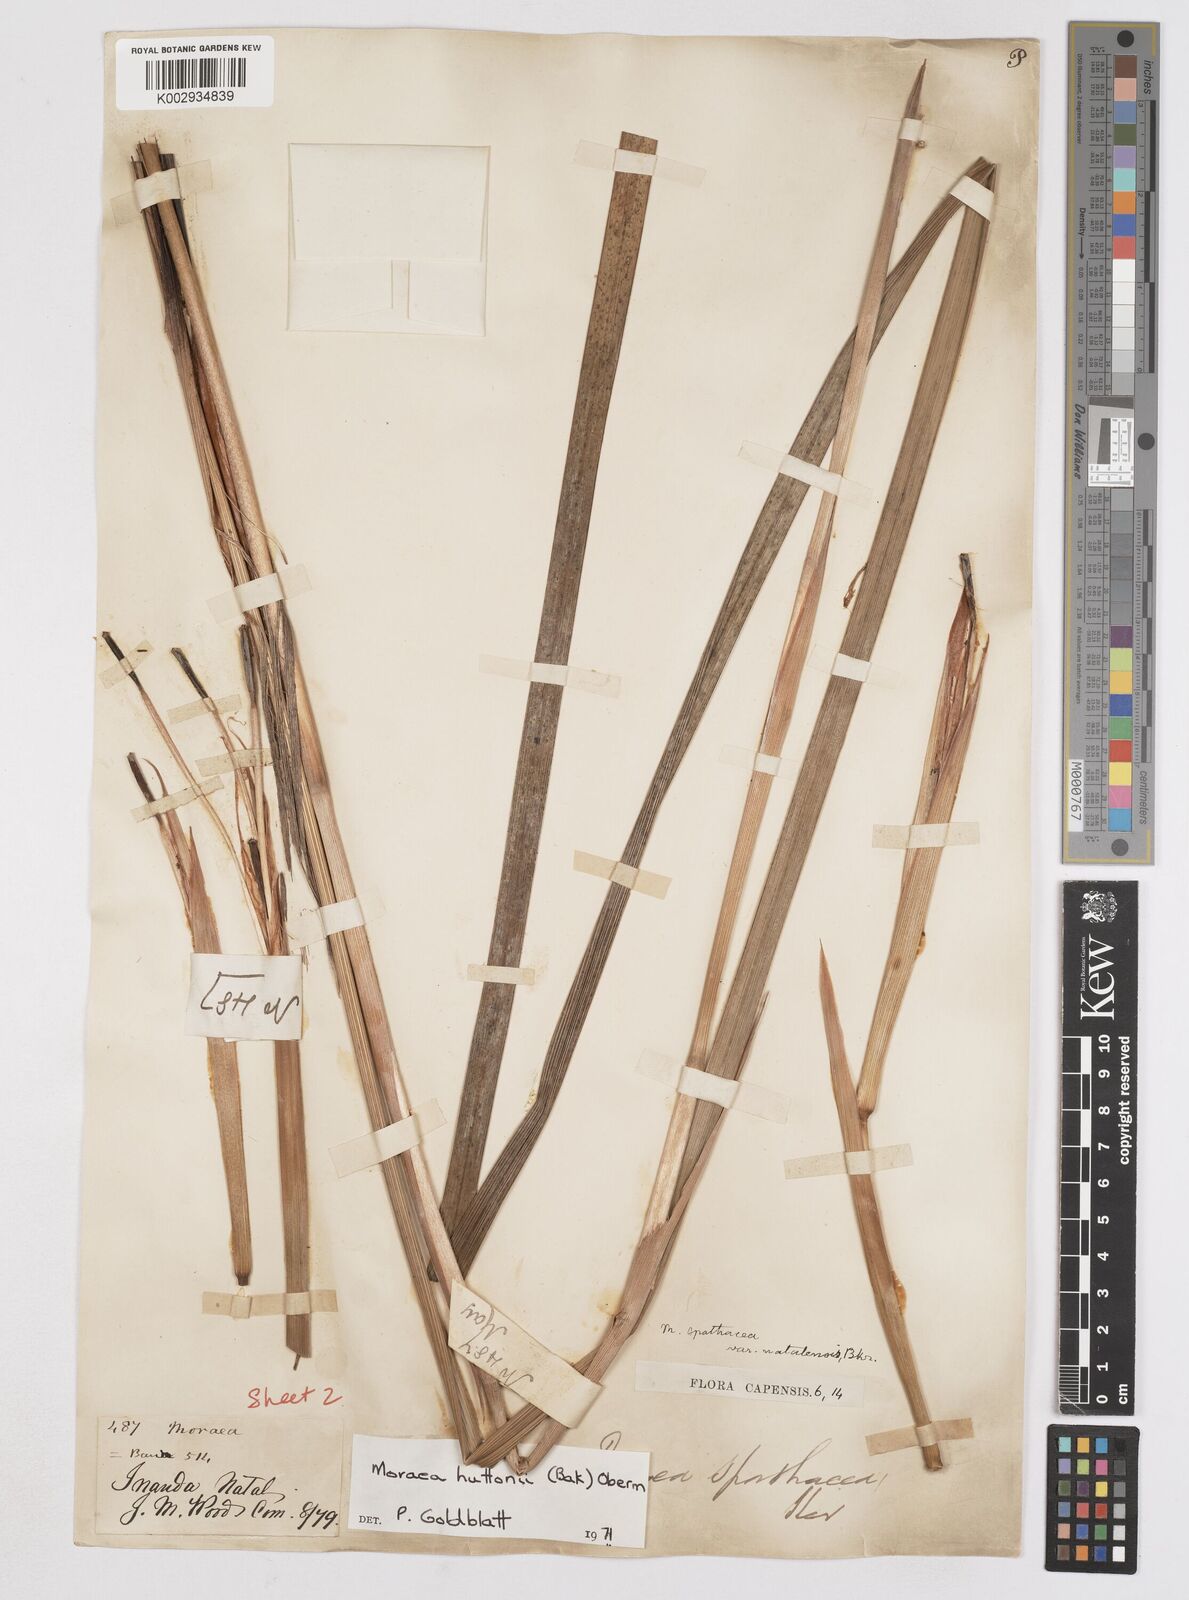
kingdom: Plantae
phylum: Tracheophyta
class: Liliopsida
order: Asparagales
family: Iridaceae
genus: Moraea
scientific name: Moraea huttonii
